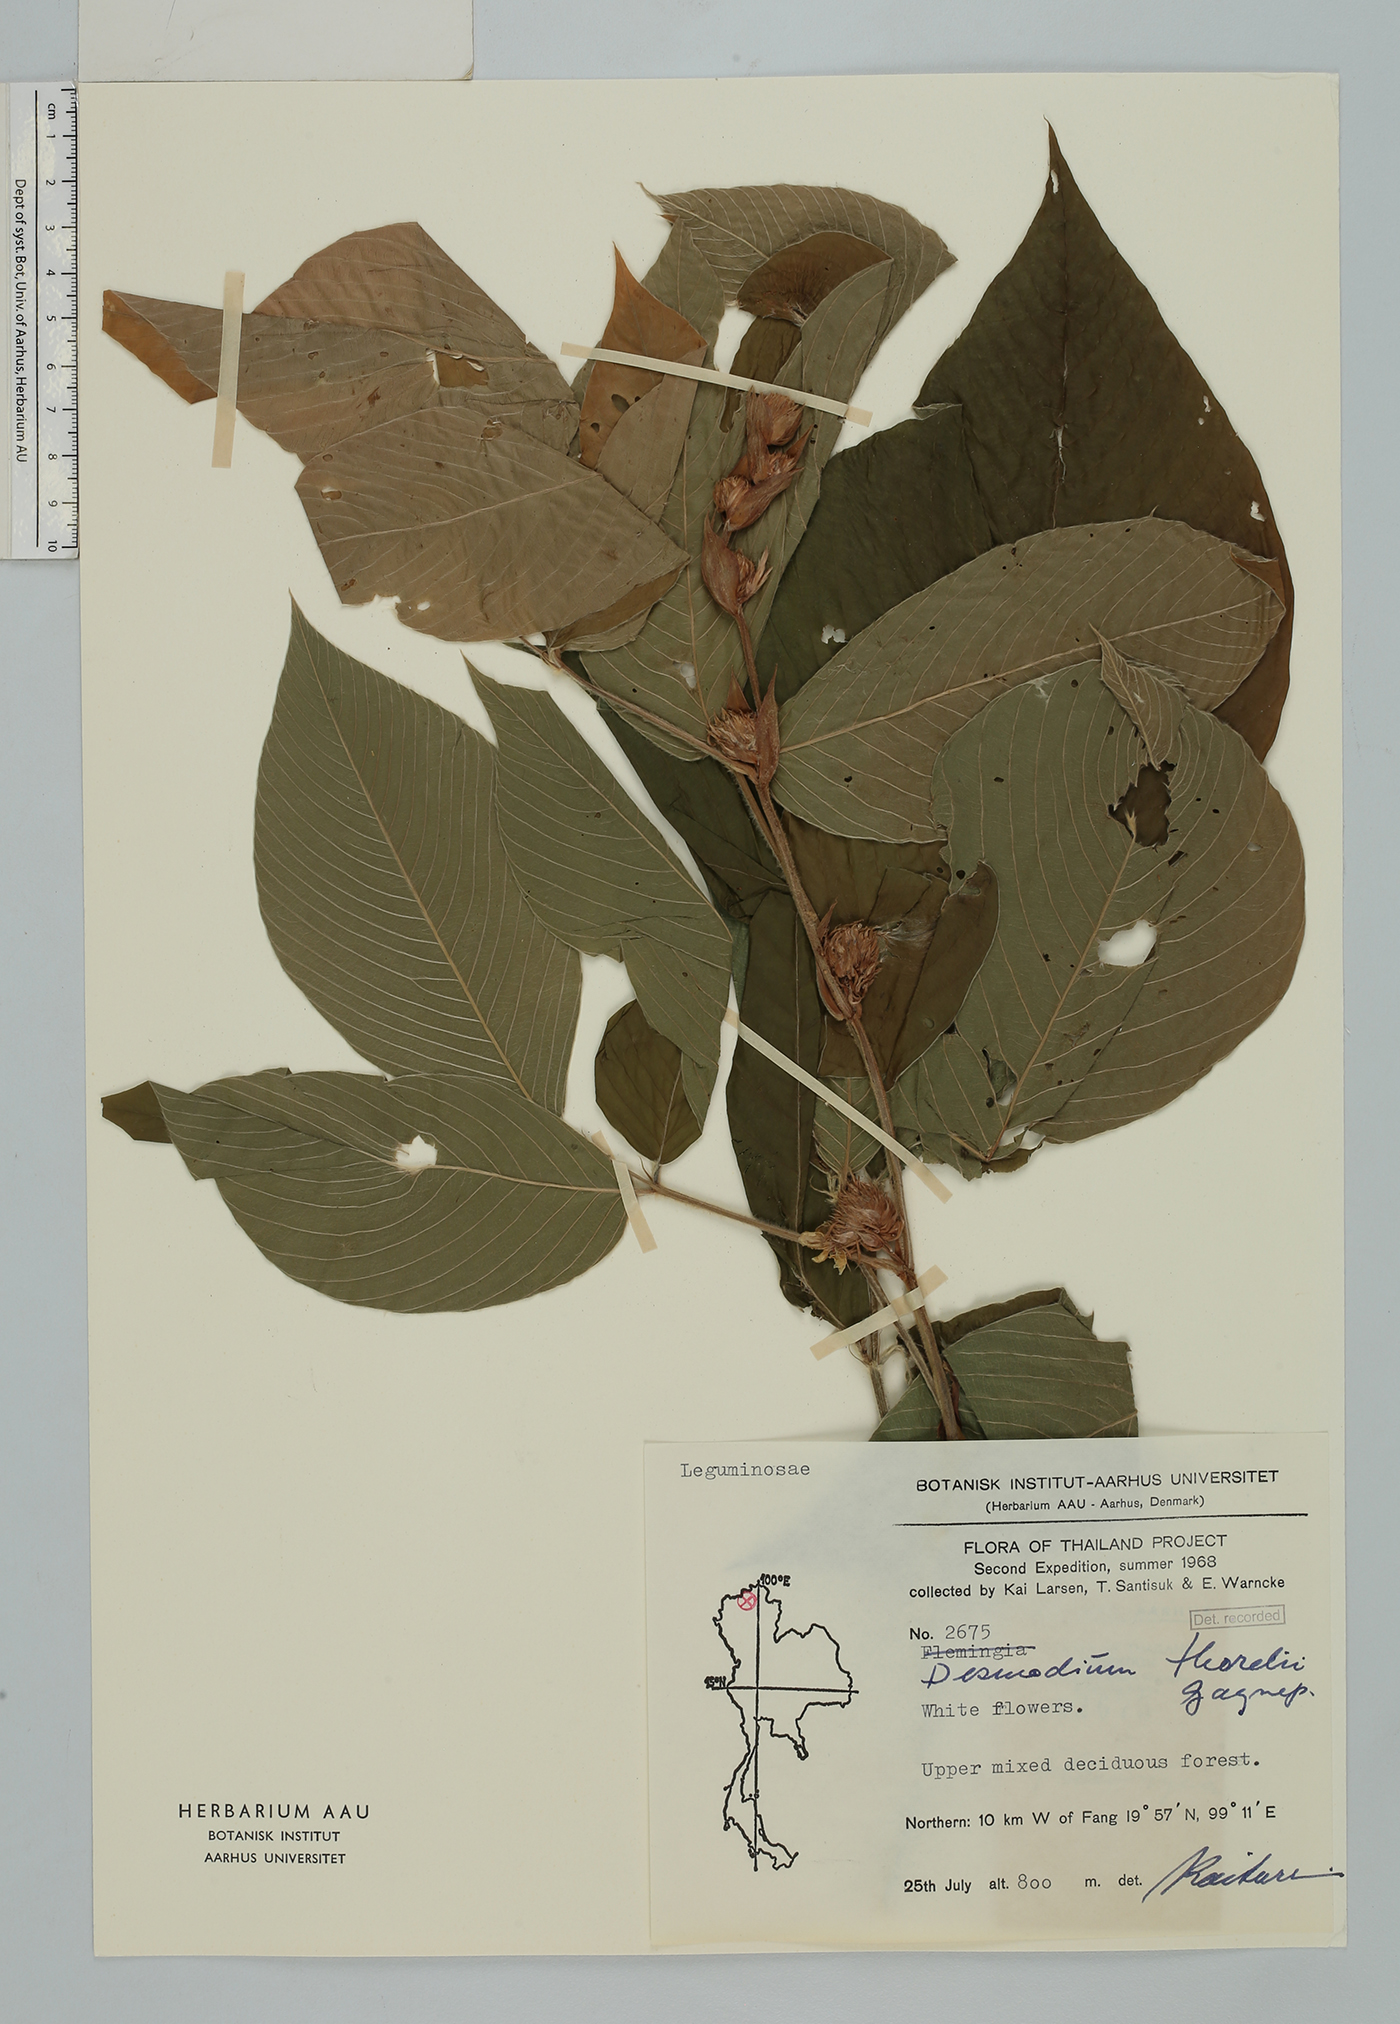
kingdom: Plantae
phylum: Tracheophyta
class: Magnoliopsida
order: Fabales
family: Fabaceae
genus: Dendrolobium
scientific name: Dendrolobium thorelii
